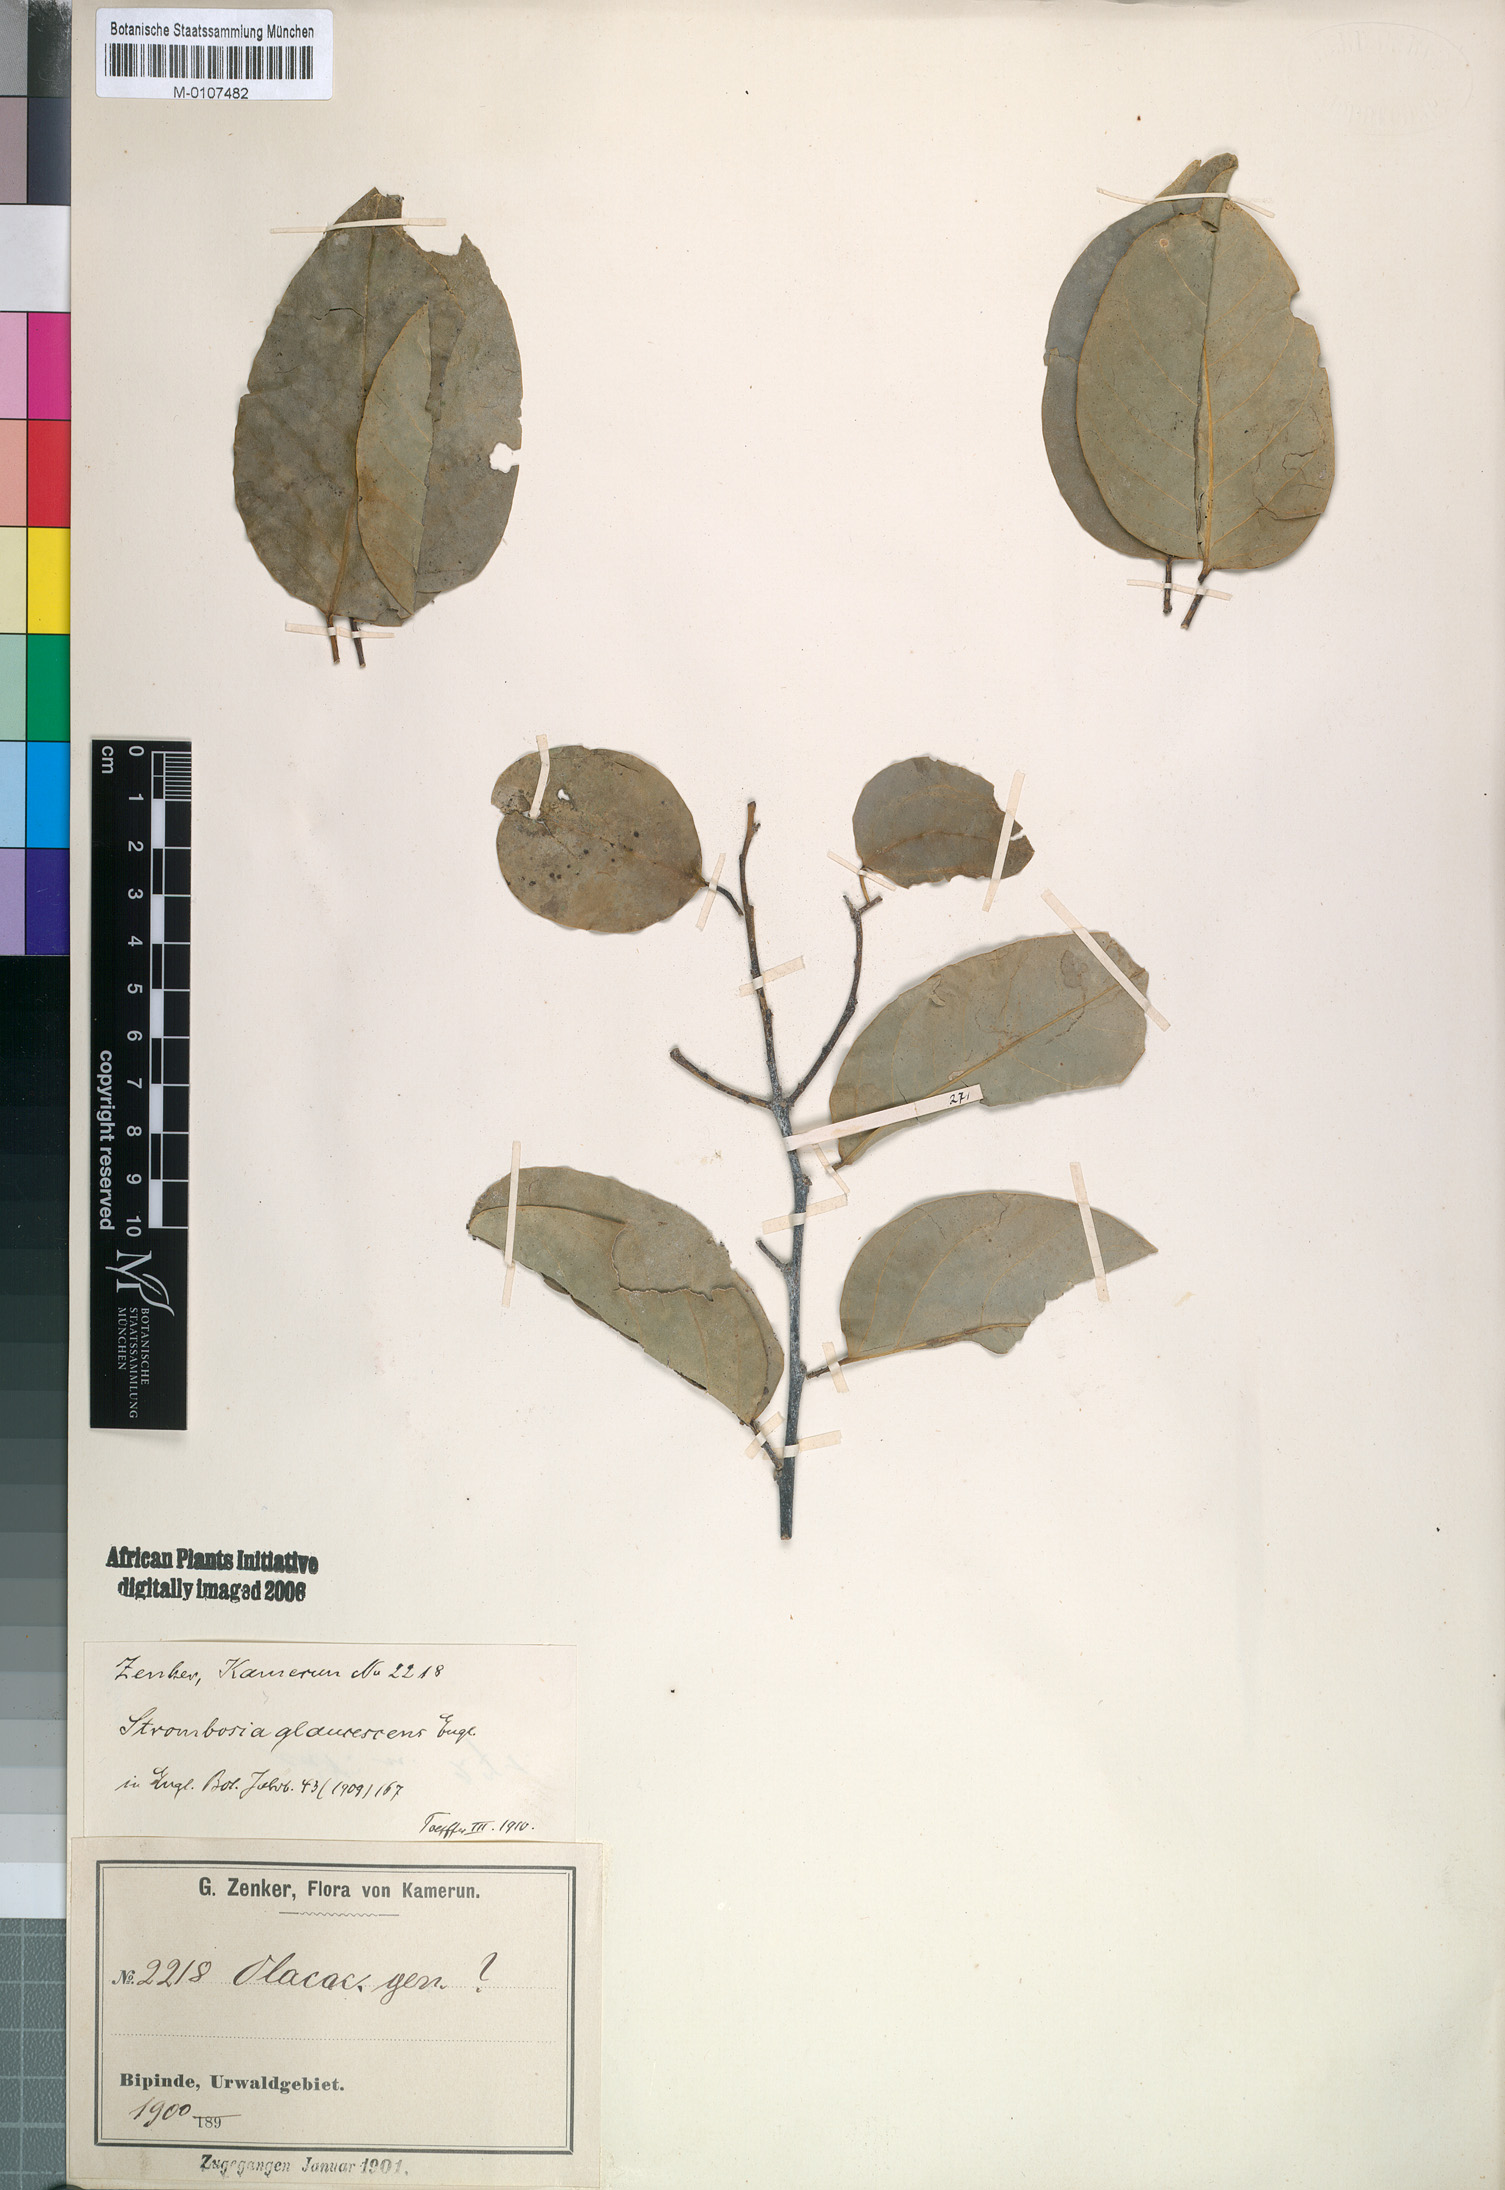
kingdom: Plantae
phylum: Tracheophyta
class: Magnoliopsida
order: Santalales
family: Strombosiaceae
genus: Strombosiopsis
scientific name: Strombosiopsis glaucescens
